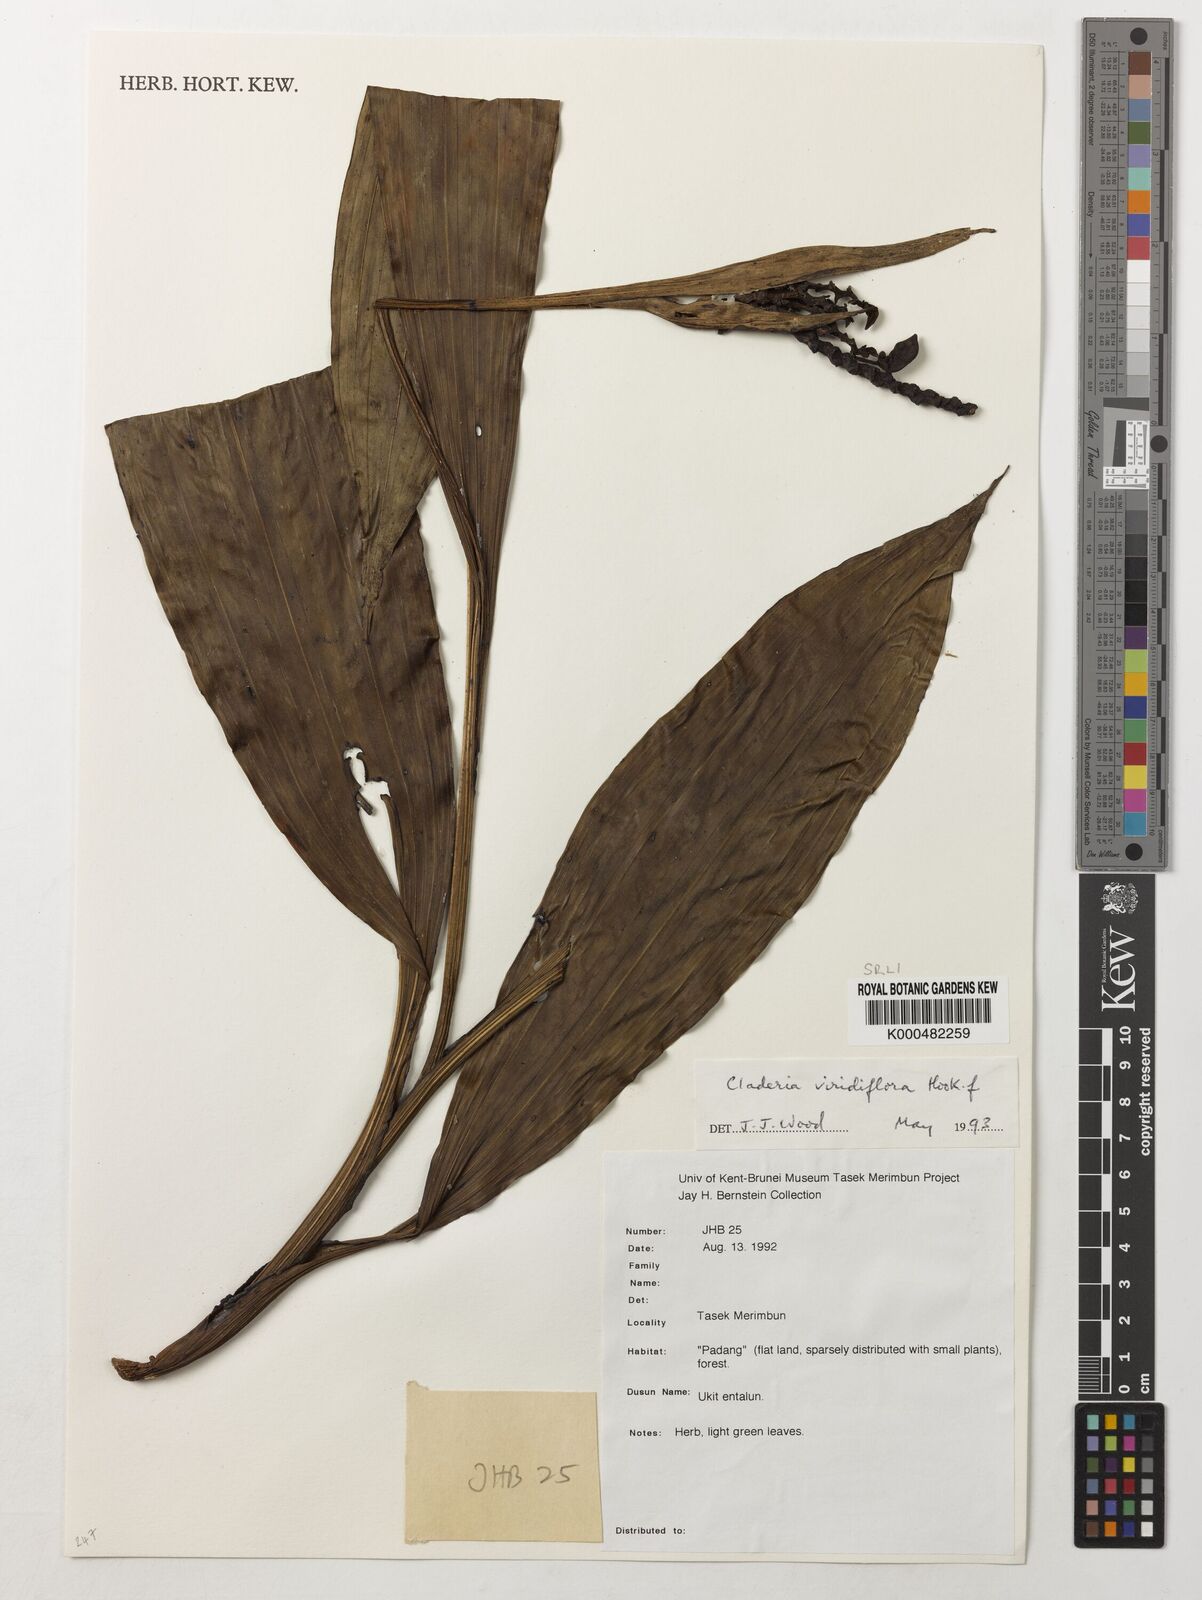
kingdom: Plantae
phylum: Tracheophyta
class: Liliopsida
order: Asparagales
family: Orchidaceae
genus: Claderia
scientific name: Claderia
